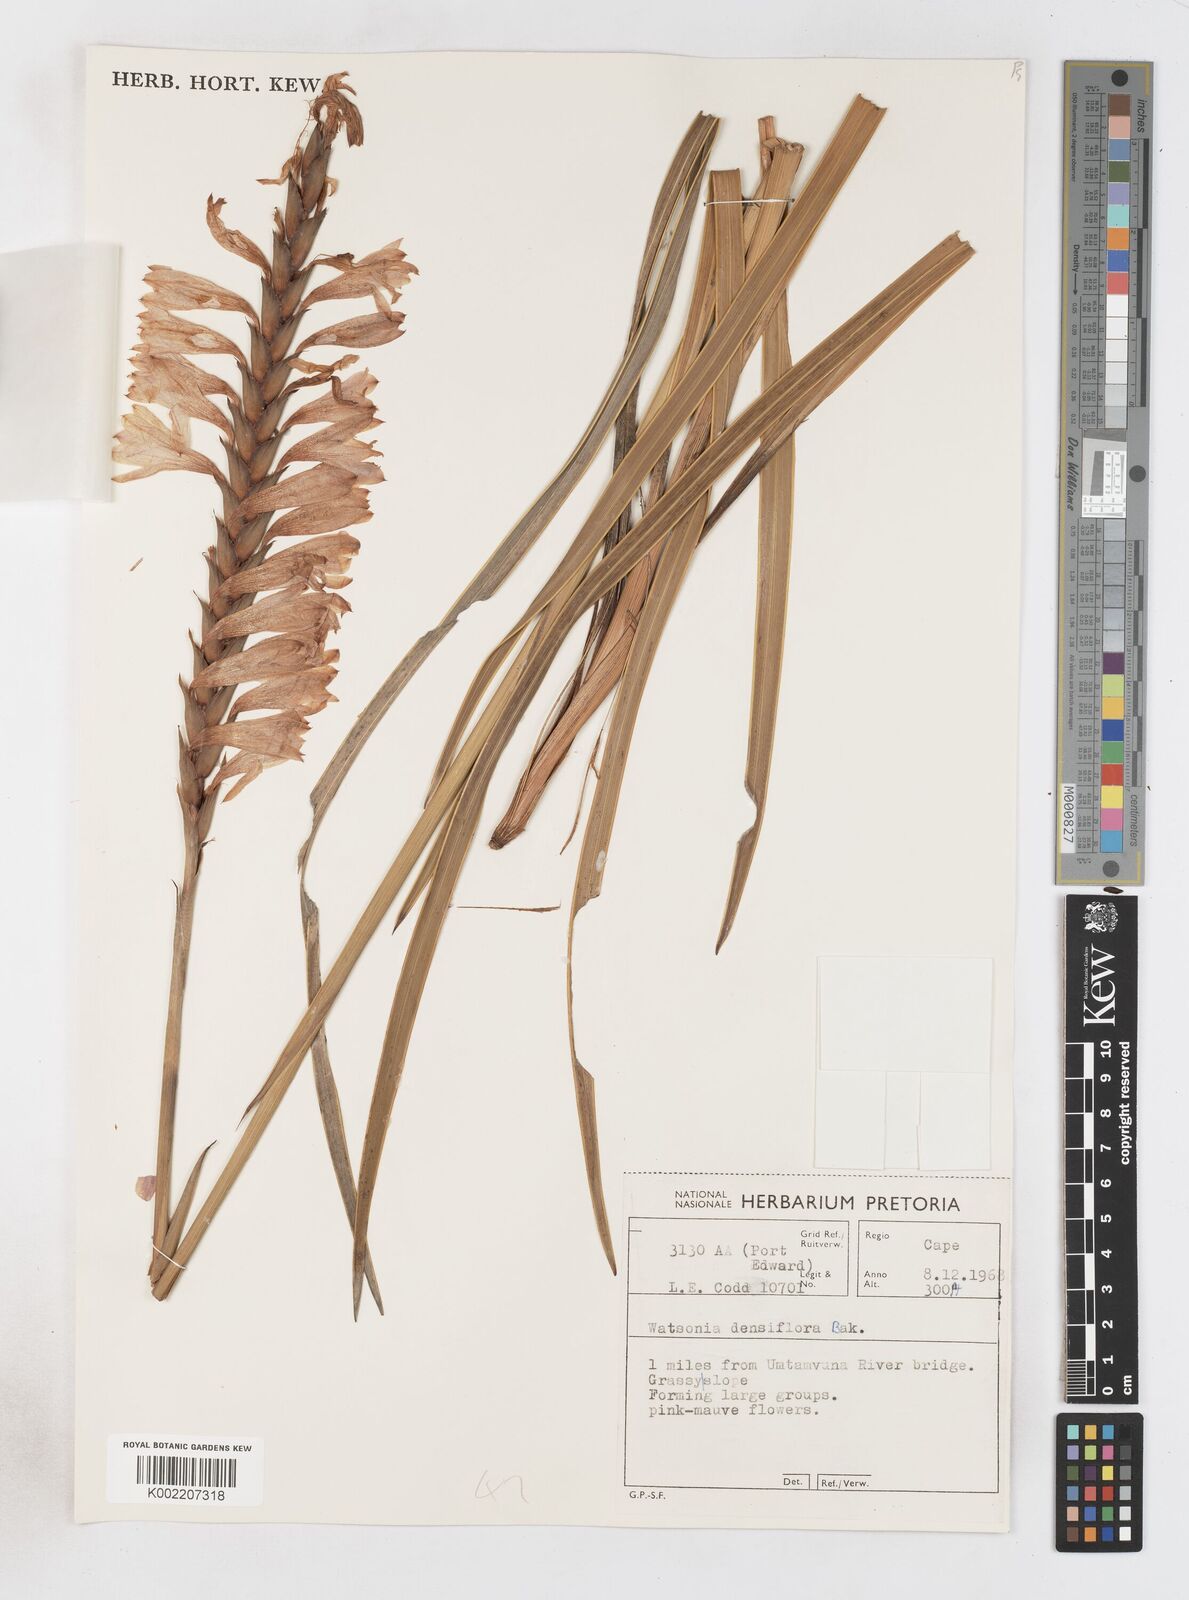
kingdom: Plantae
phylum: Tracheophyta
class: Liliopsida
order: Asparagales
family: Iridaceae
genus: Watsonia
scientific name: Watsonia densiflora
